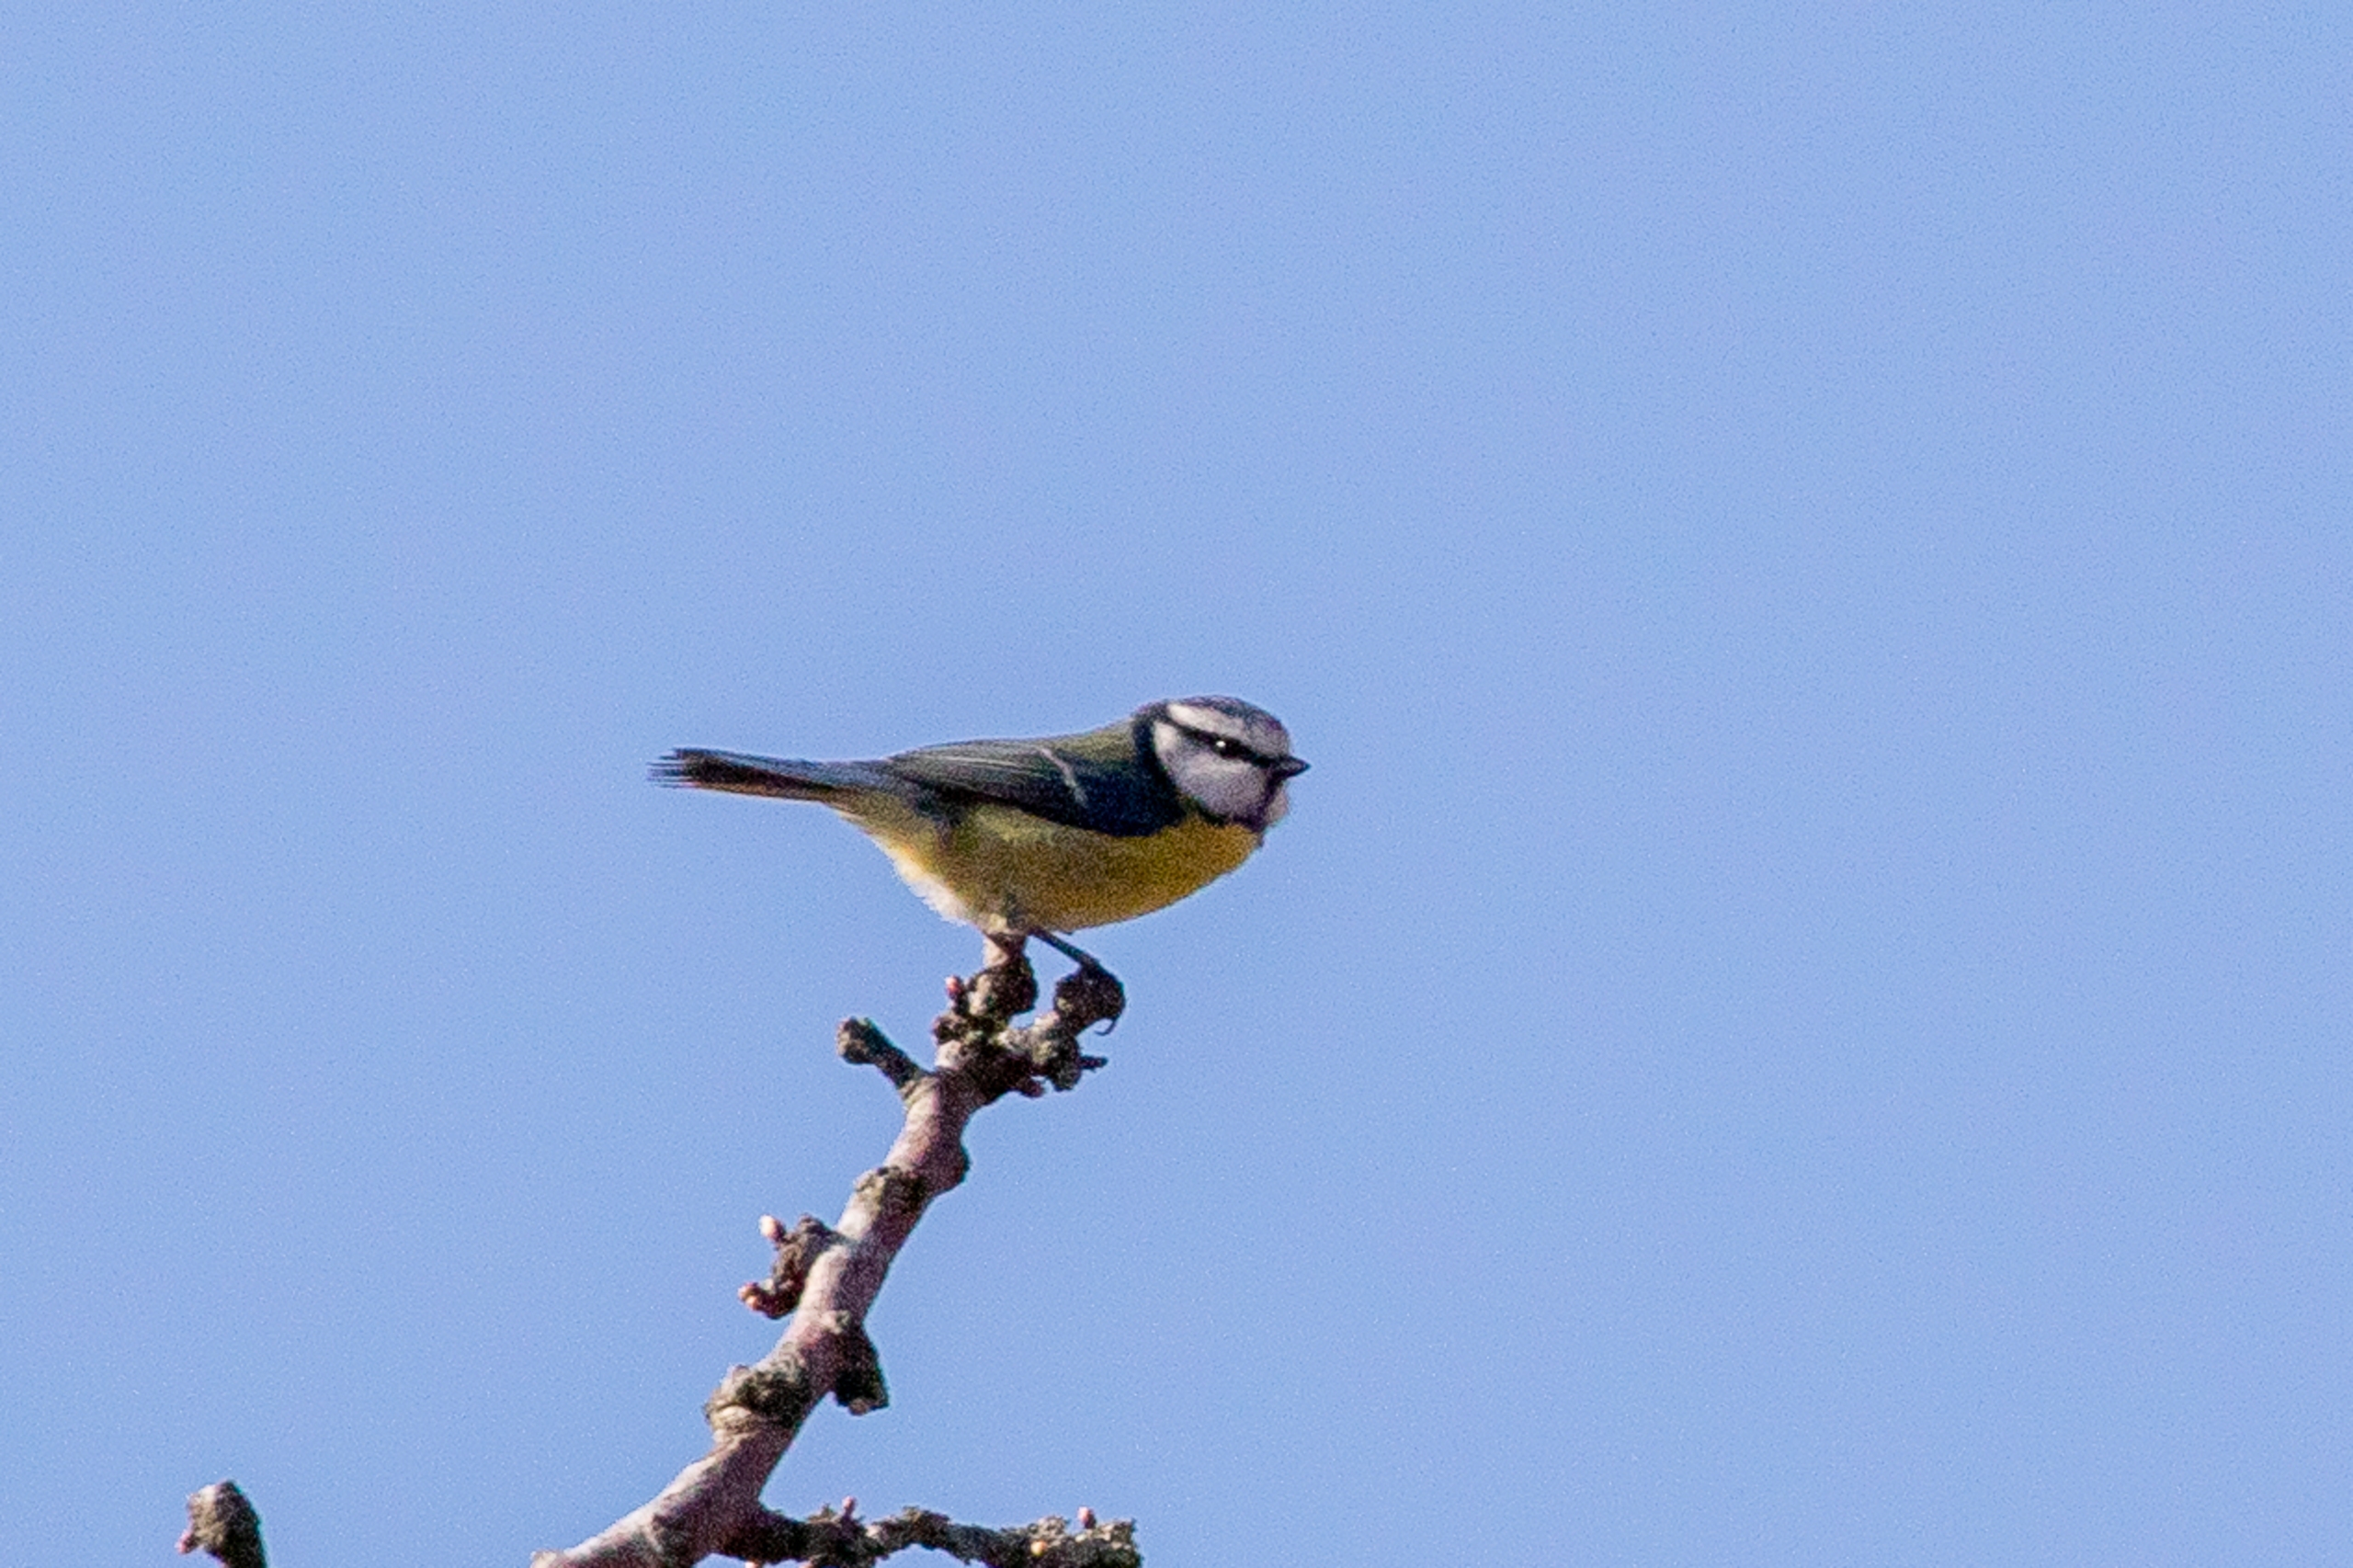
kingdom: Animalia
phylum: Chordata
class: Aves
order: Passeriformes
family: Paridae
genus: Cyanistes
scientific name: Cyanistes caeruleus
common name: Blåmejse
